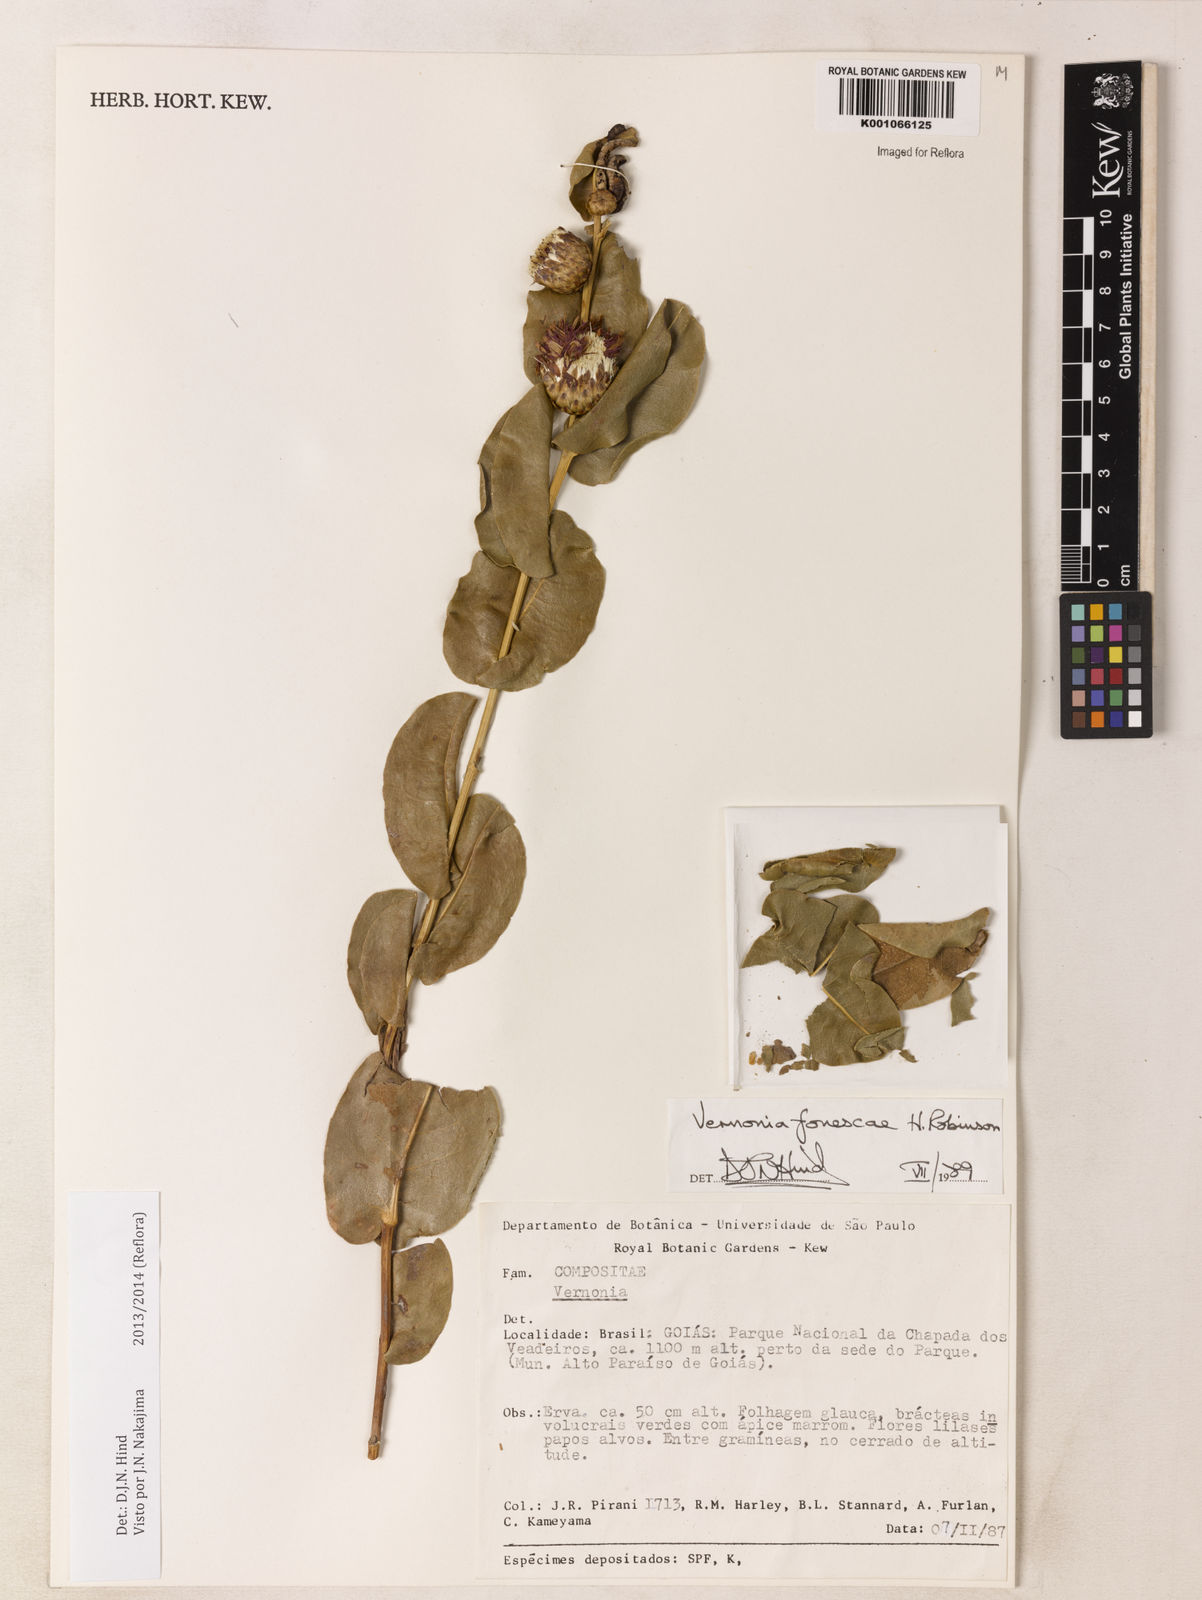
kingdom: Plantae
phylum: Tracheophyta
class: Magnoliopsida
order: Asterales
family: Asteraceae
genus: Lessingianthus
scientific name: Lessingianthus fonsecae
